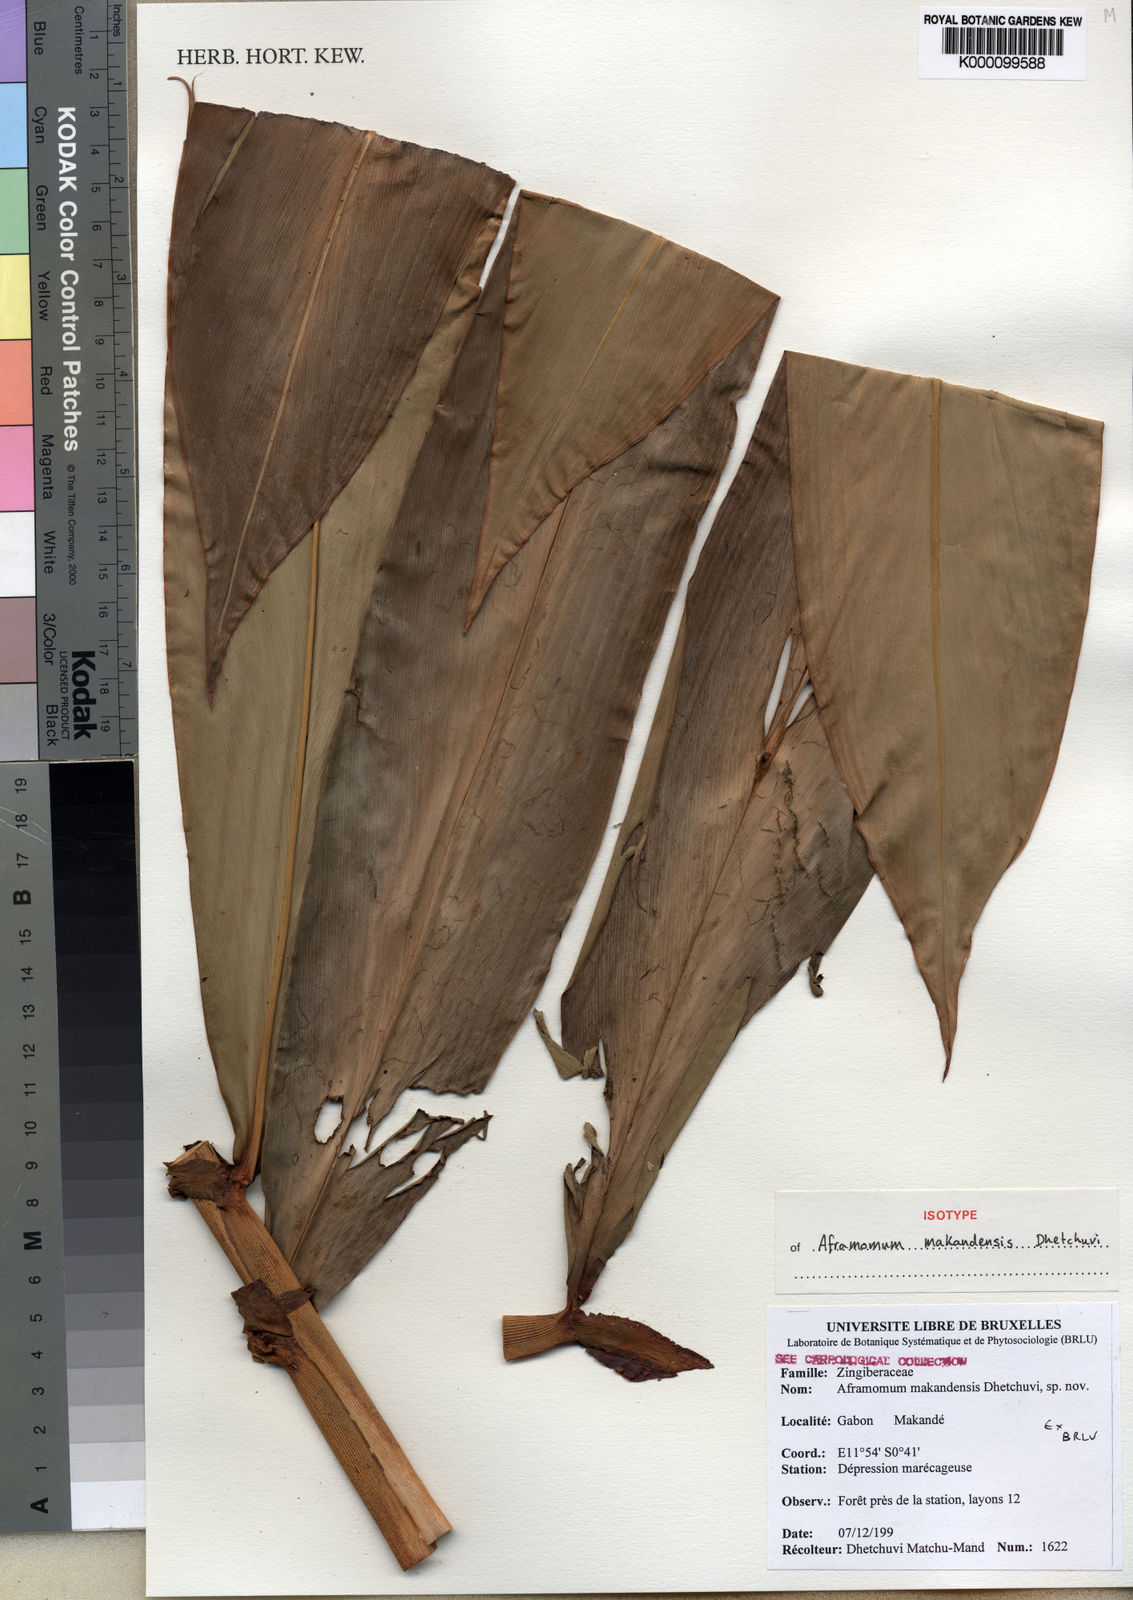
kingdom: Plantae
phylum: Tracheophyta
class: Liliopsida
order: Zingiberales
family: Zingiberaceae
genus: Aframomum
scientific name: Aframomum makandensis
